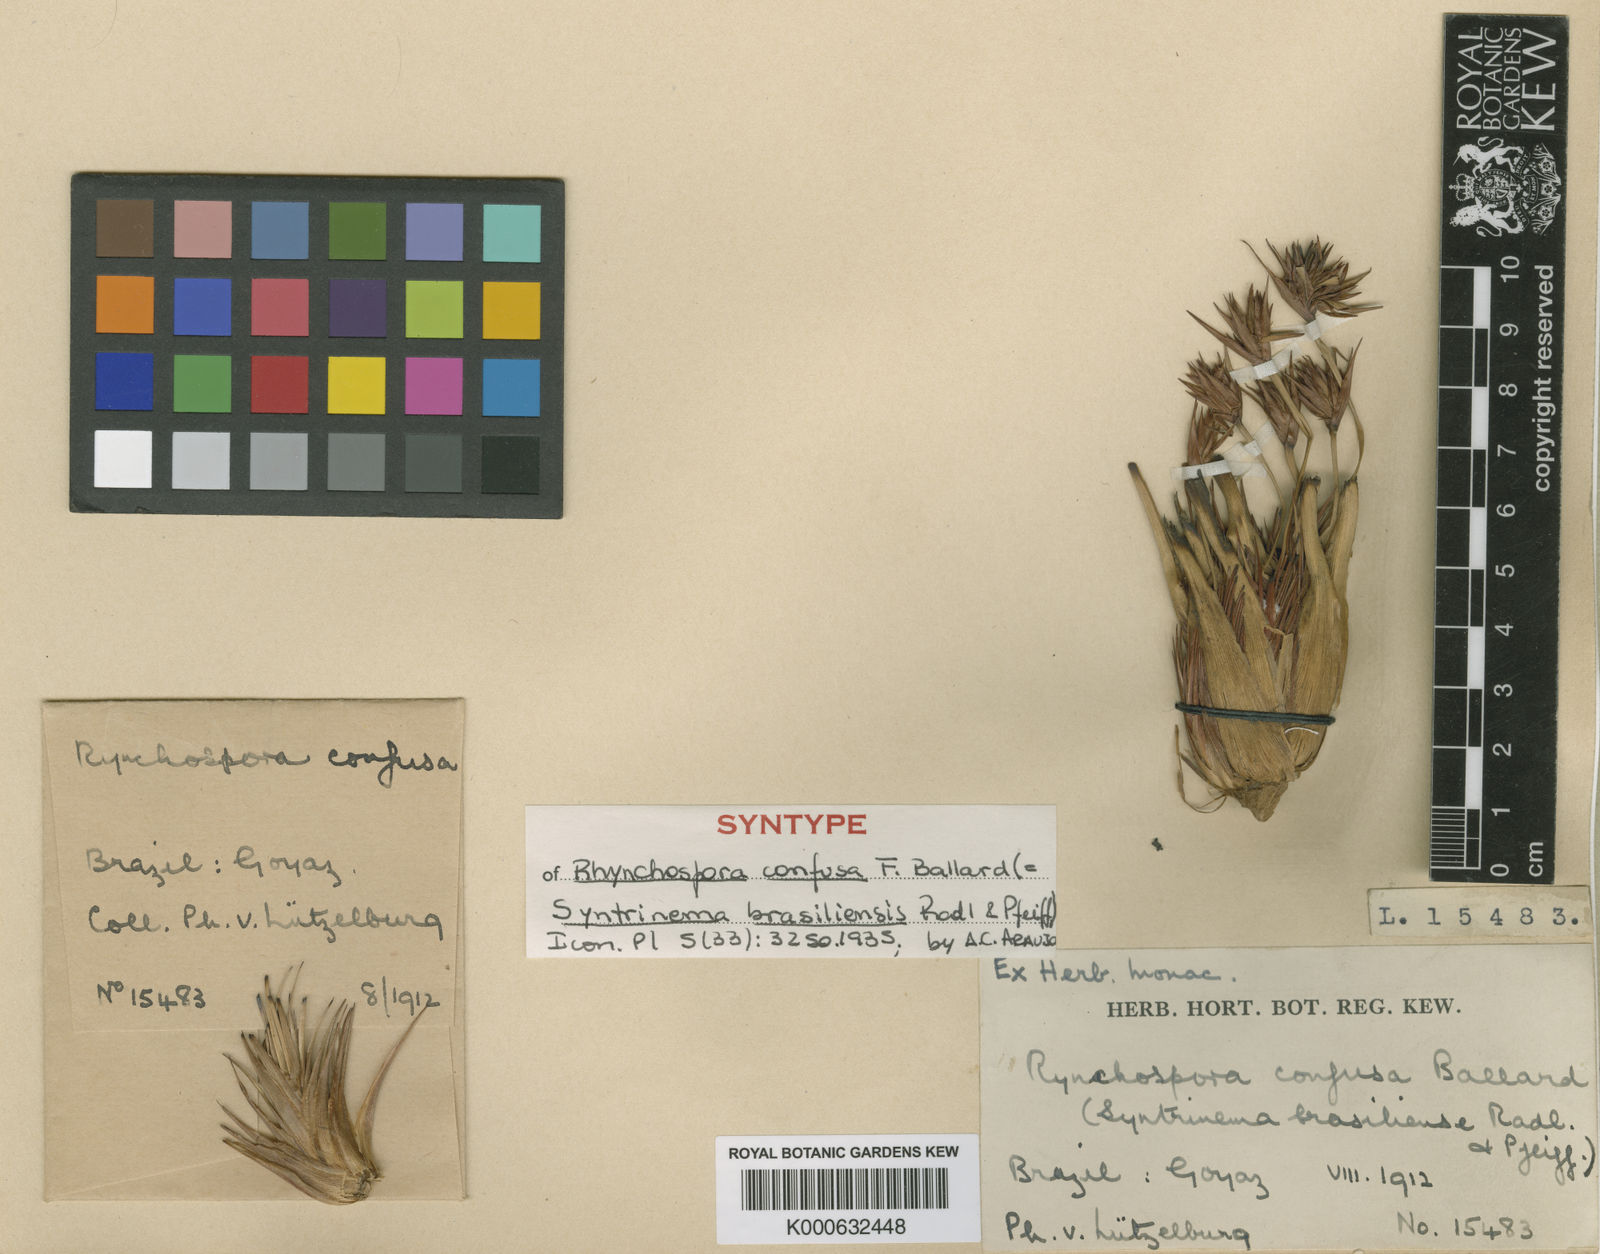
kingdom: Plantae
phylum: Tracheophyta
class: Liliopsida
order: Poales
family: Cyperaceae
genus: Rhynchospora
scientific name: Rhynchospora confusa
